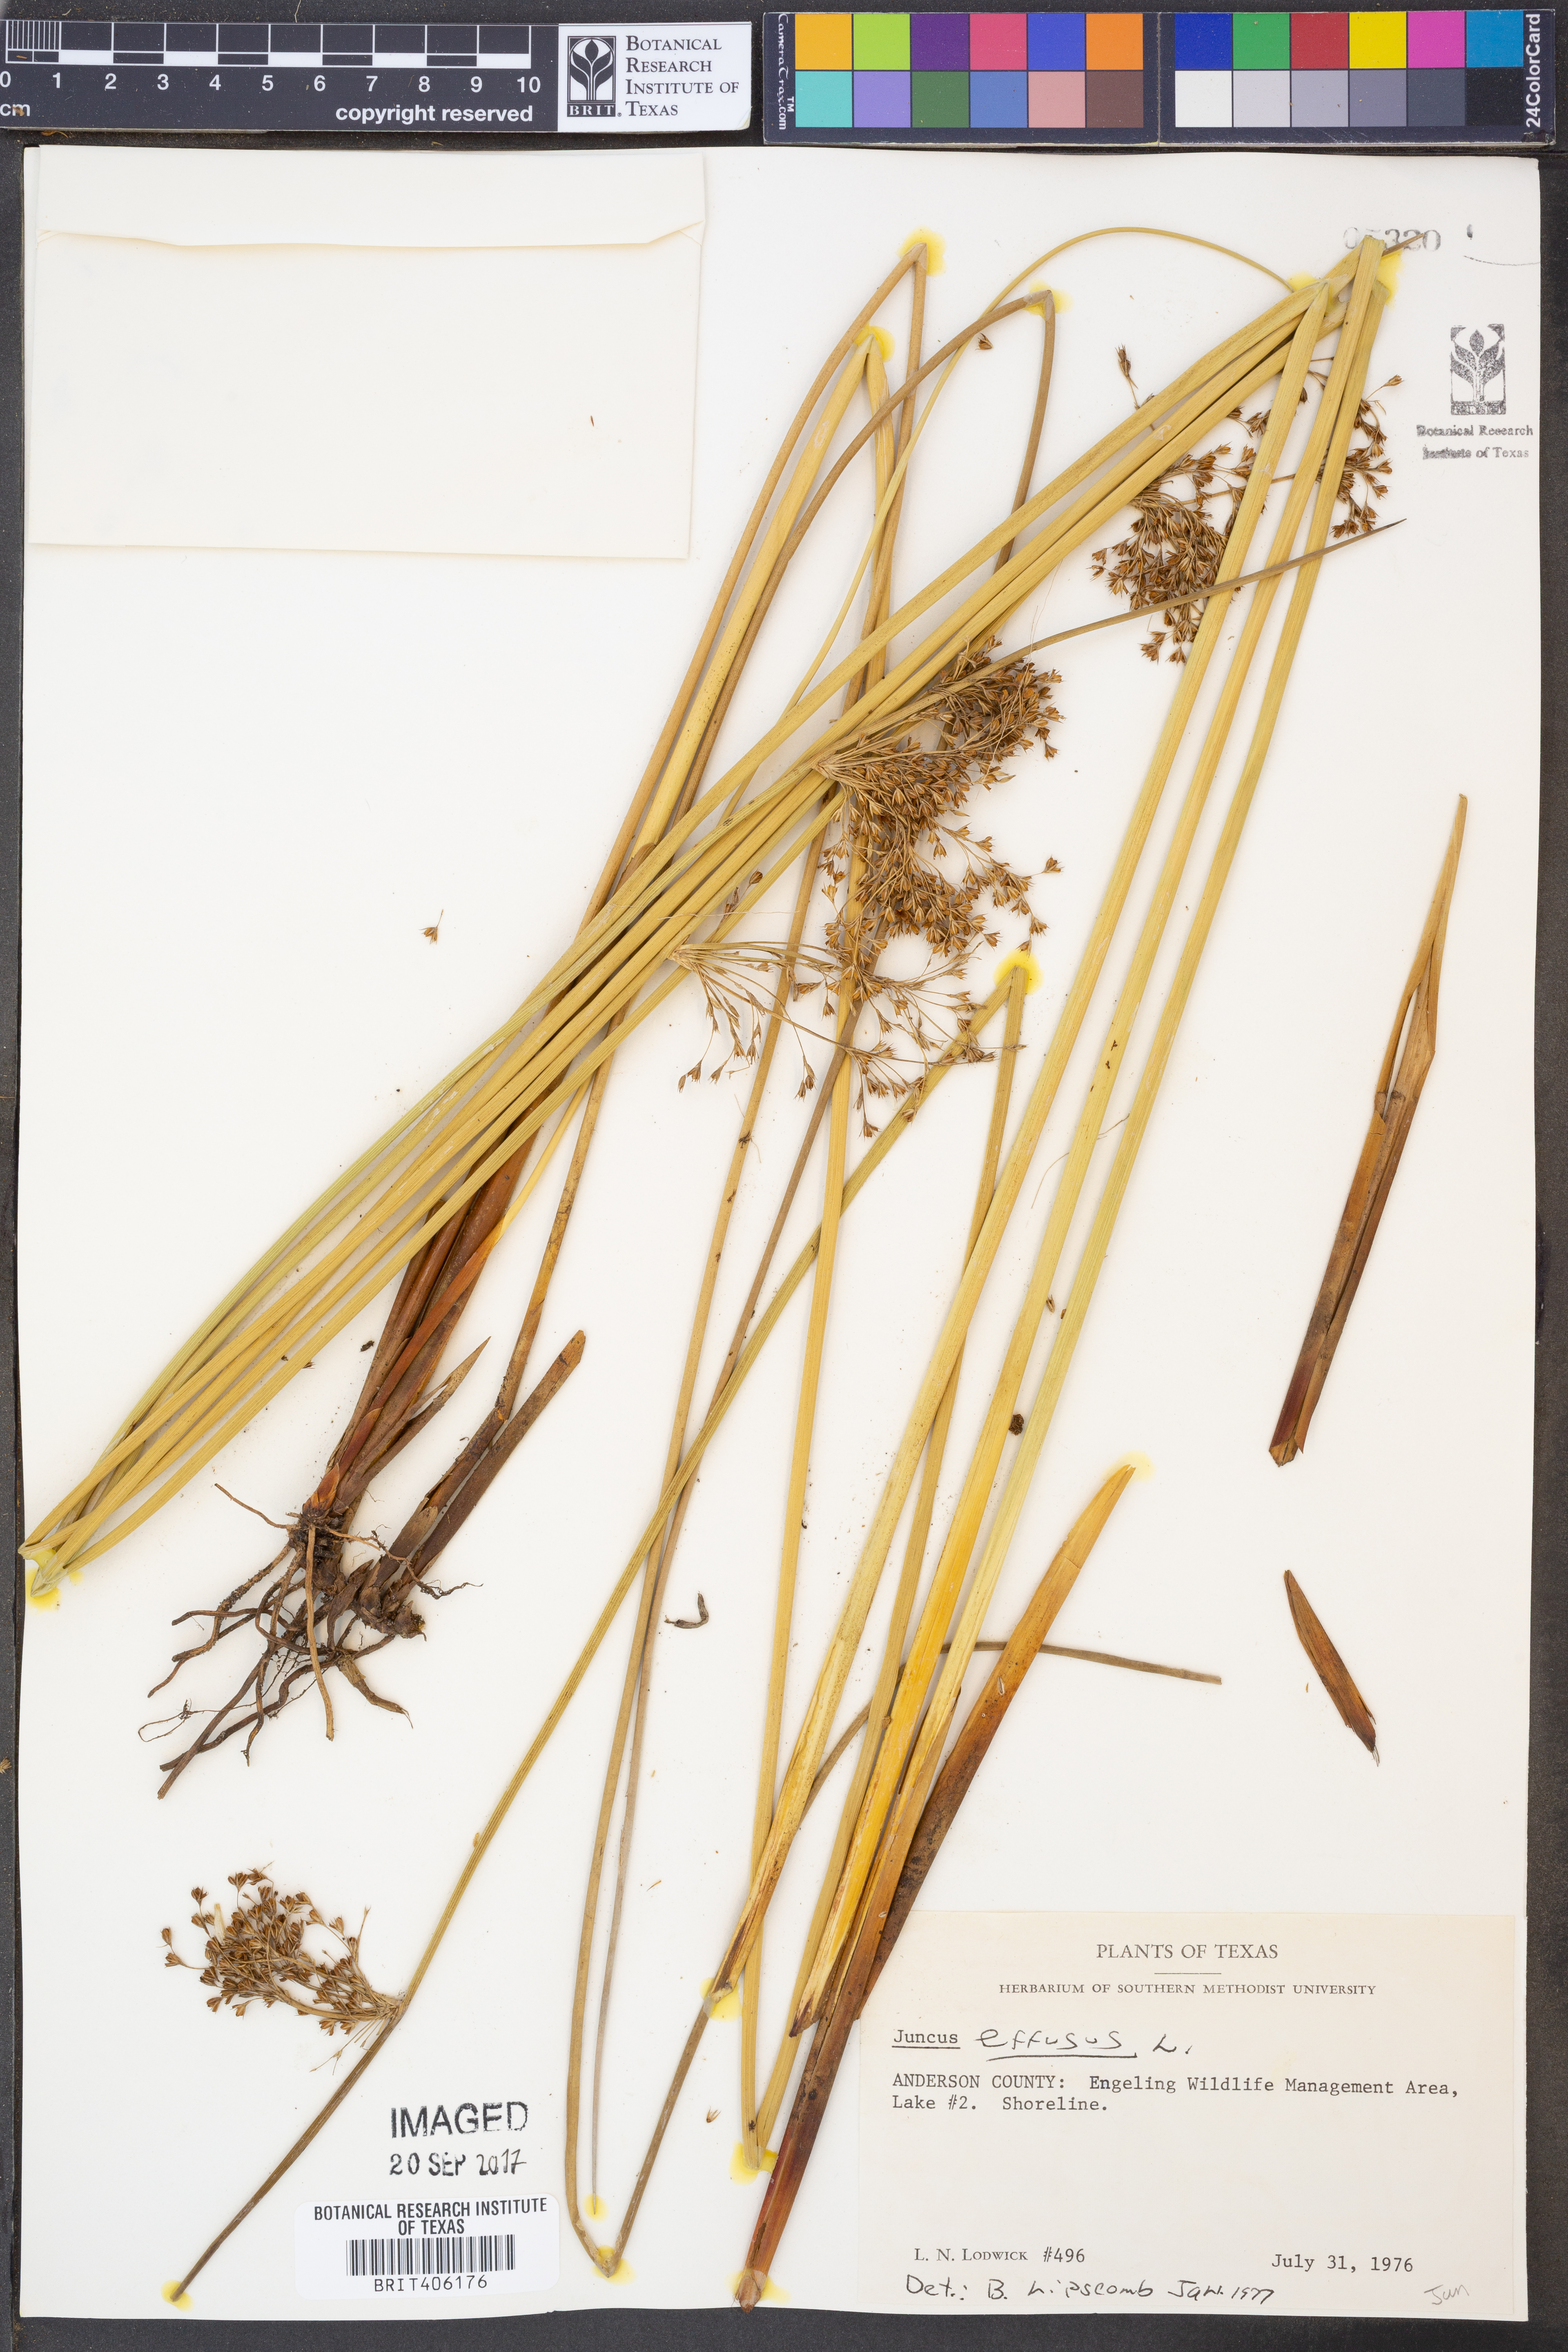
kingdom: Plantae
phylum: Tracheophyta
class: Liliopsida
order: Poales
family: Juncaceae
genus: Juncus
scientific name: Juncus effusus
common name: Soft rush
